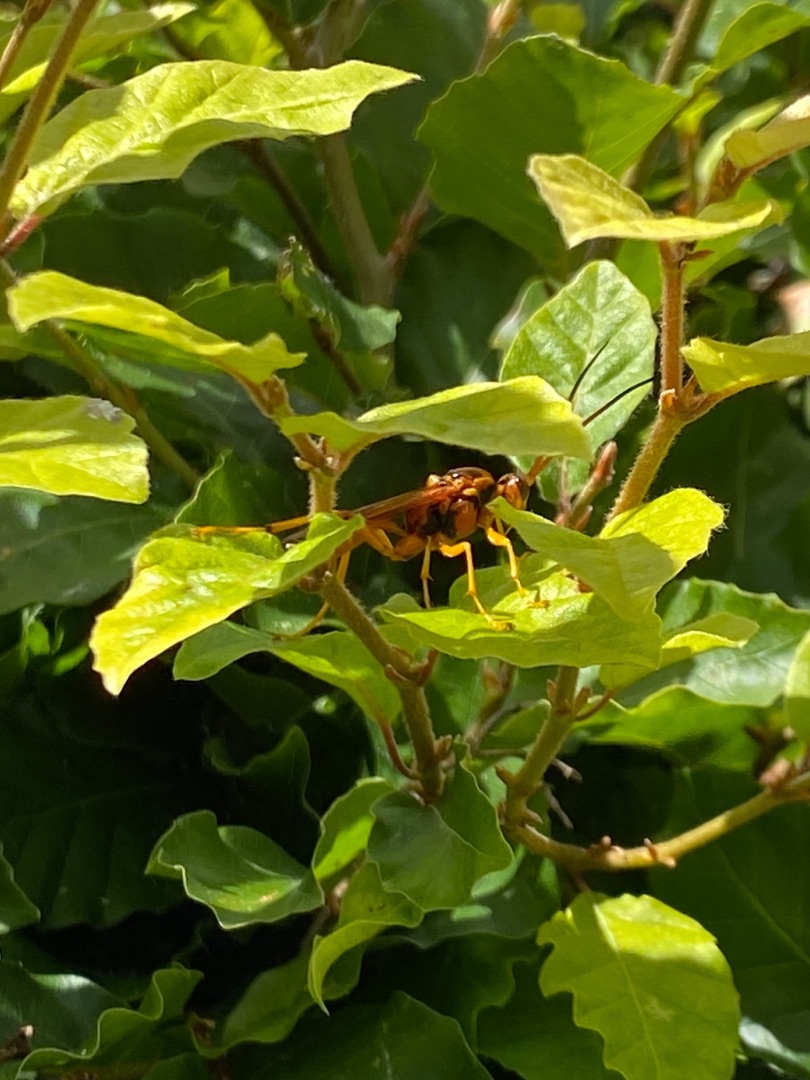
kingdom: Animalia
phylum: Arthropoda
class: Insecta
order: Hymenoptera
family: Ichneumonidae
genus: Callajoppa
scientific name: Callajoppa
